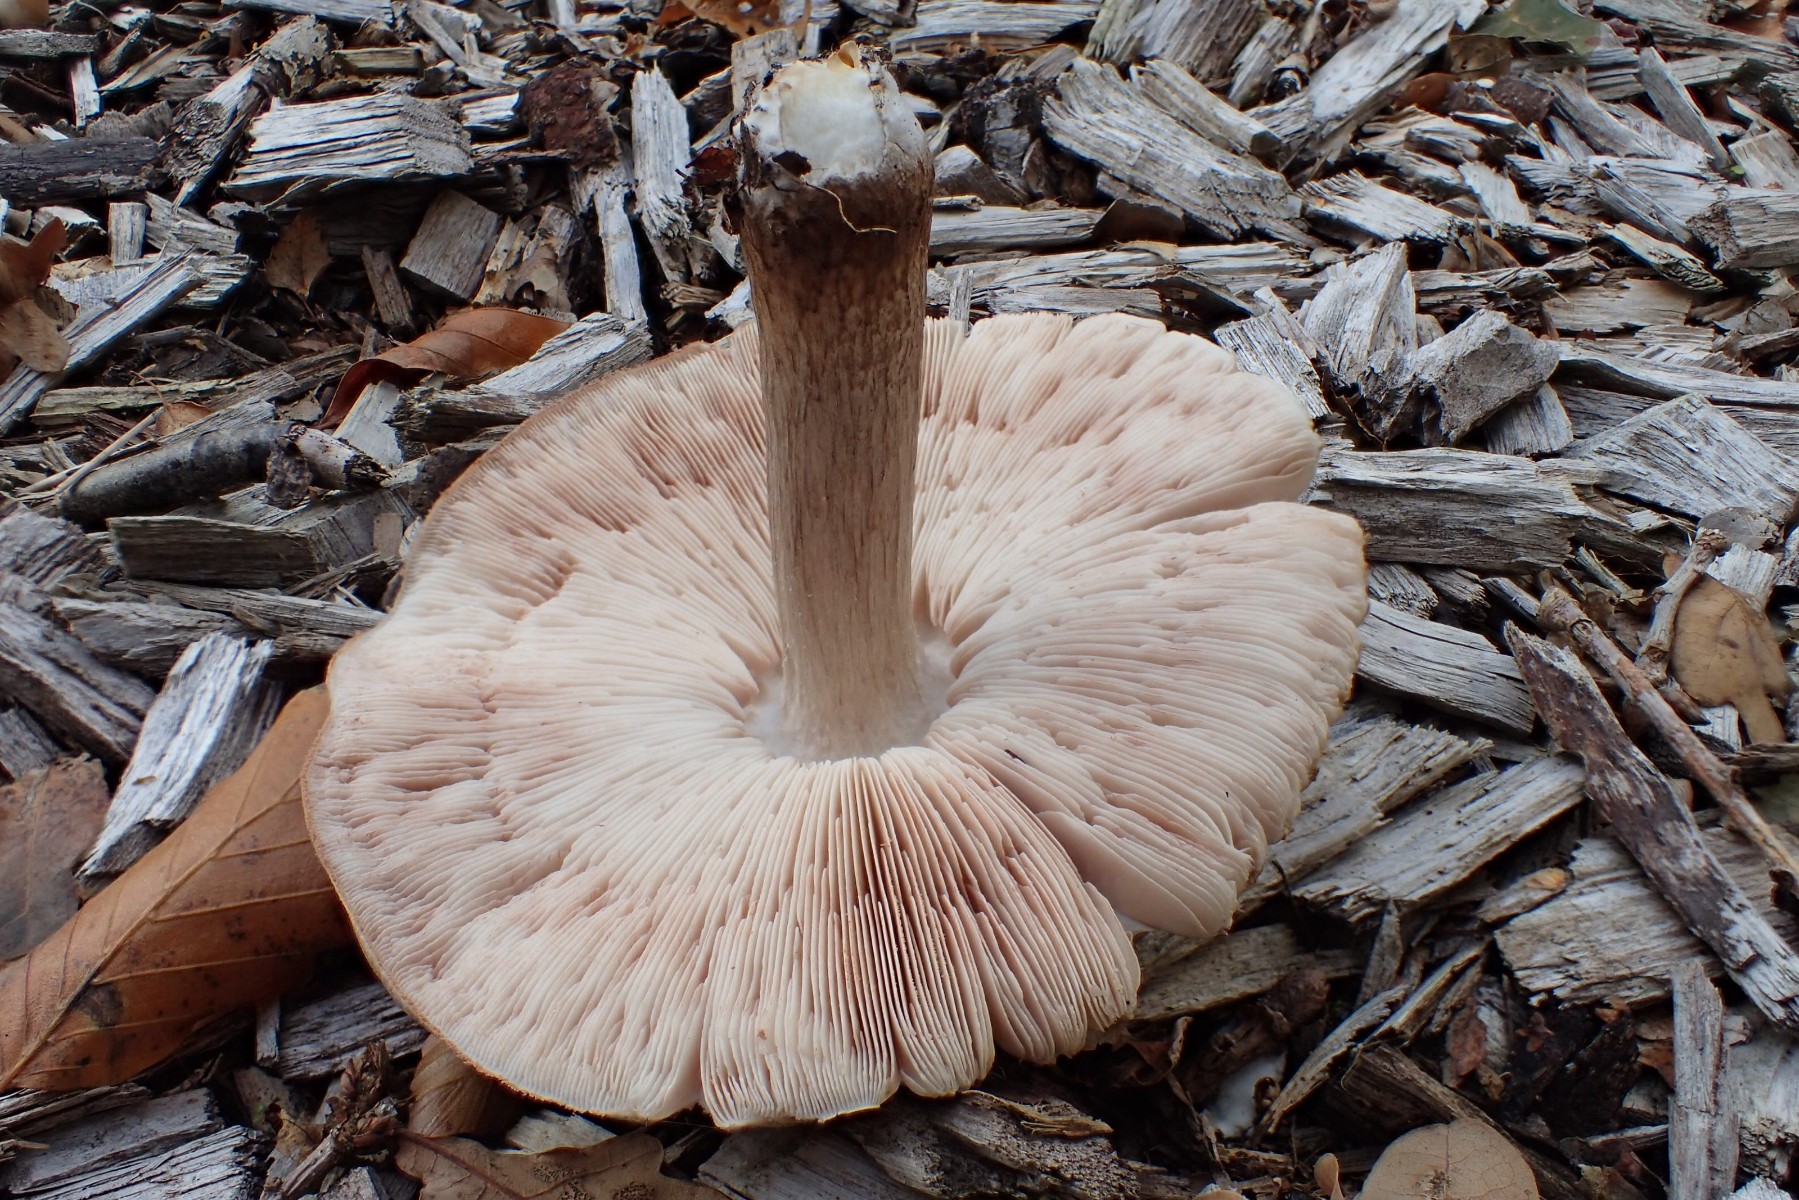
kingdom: Fungi
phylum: Basidiomycota
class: Agaricomycetes
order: Agaricales
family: Pluteaceae
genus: Pluteus
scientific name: Pluteus
